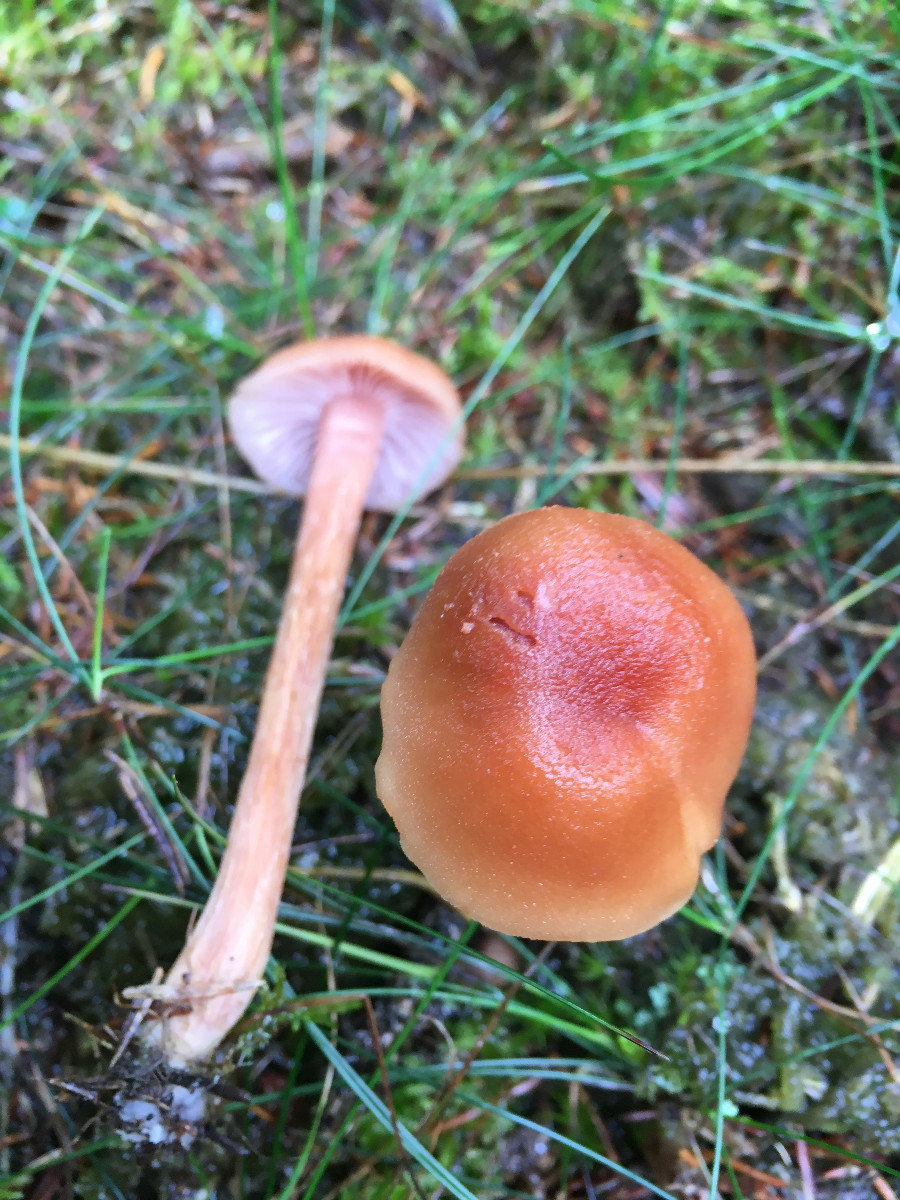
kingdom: Fungi
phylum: Basidiomycota
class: Agaricomycetes
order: Agaricales
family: Hydnangiaceae
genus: Laccaria
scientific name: Laccaria bicolor
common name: tvefarvet ametysthat
